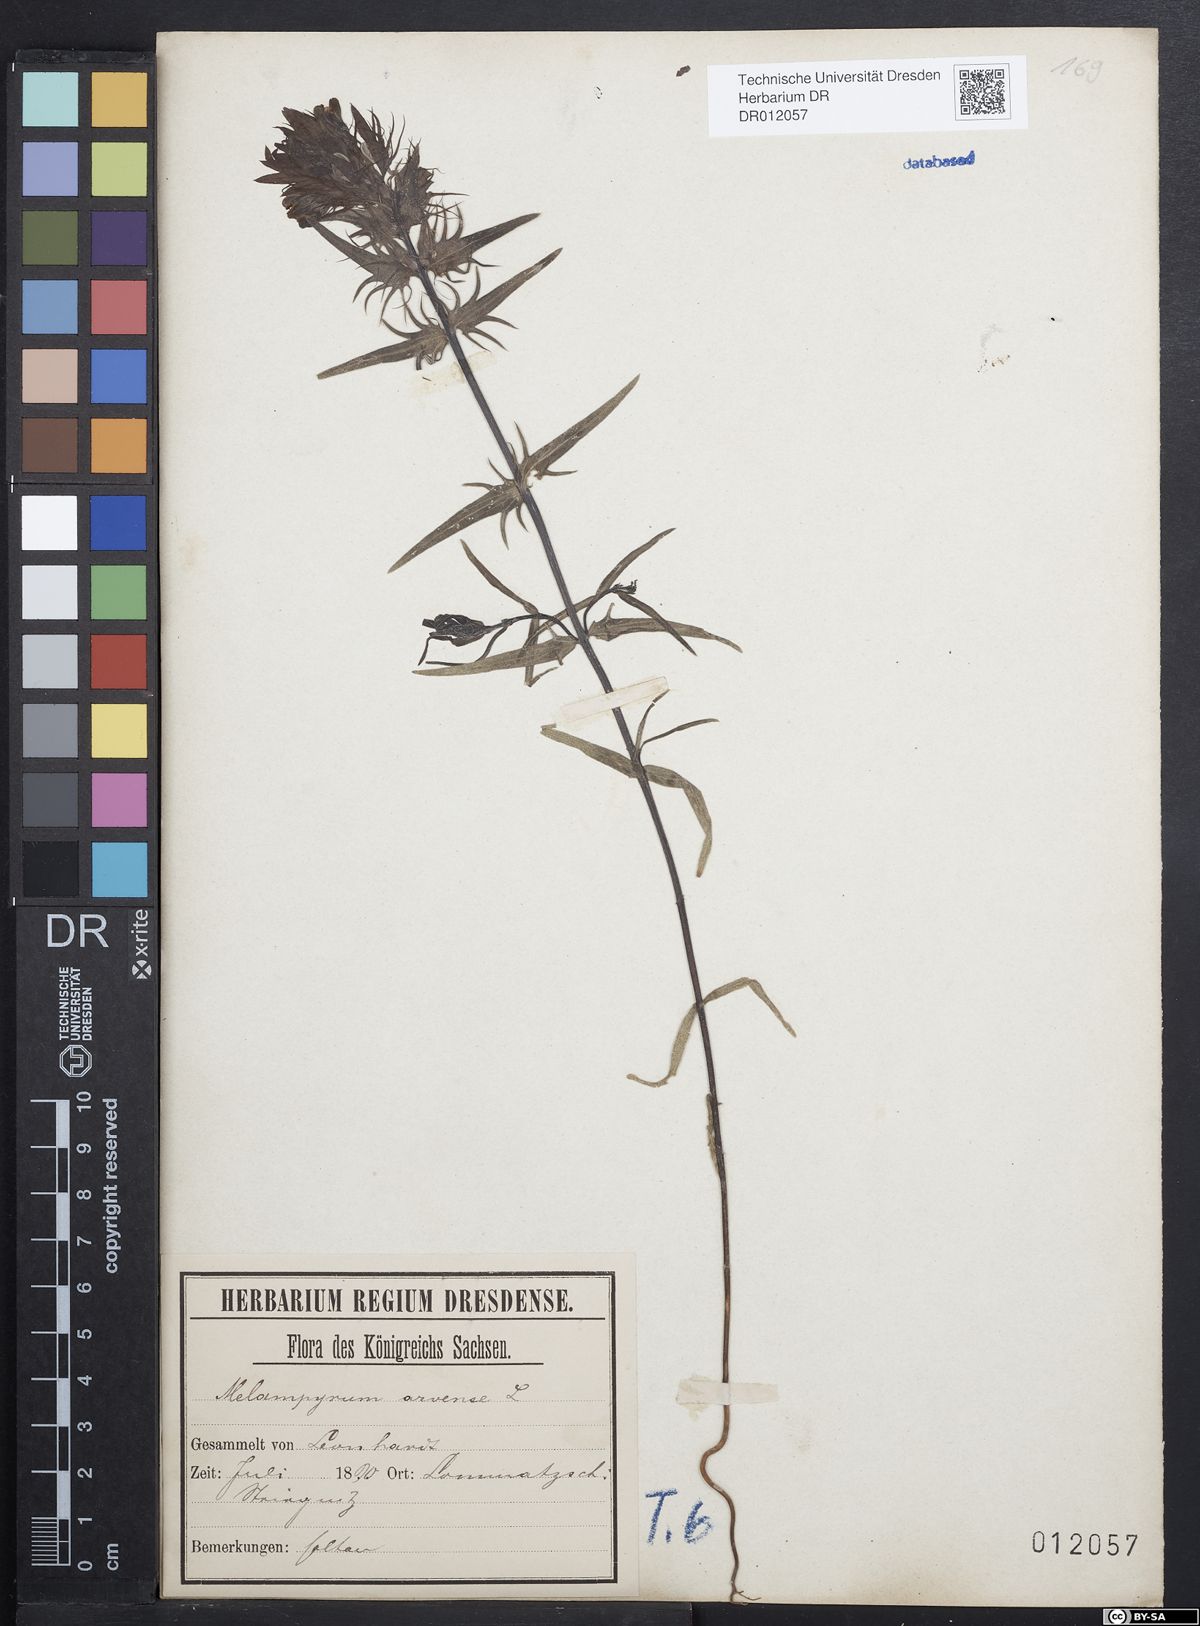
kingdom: Plantae
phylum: Tracheophyta
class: Magnoliopsida
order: Lamiales
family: Orobanchaceae
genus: Melampyrum
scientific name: Melampyrum arvense
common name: Field cow-wheat
